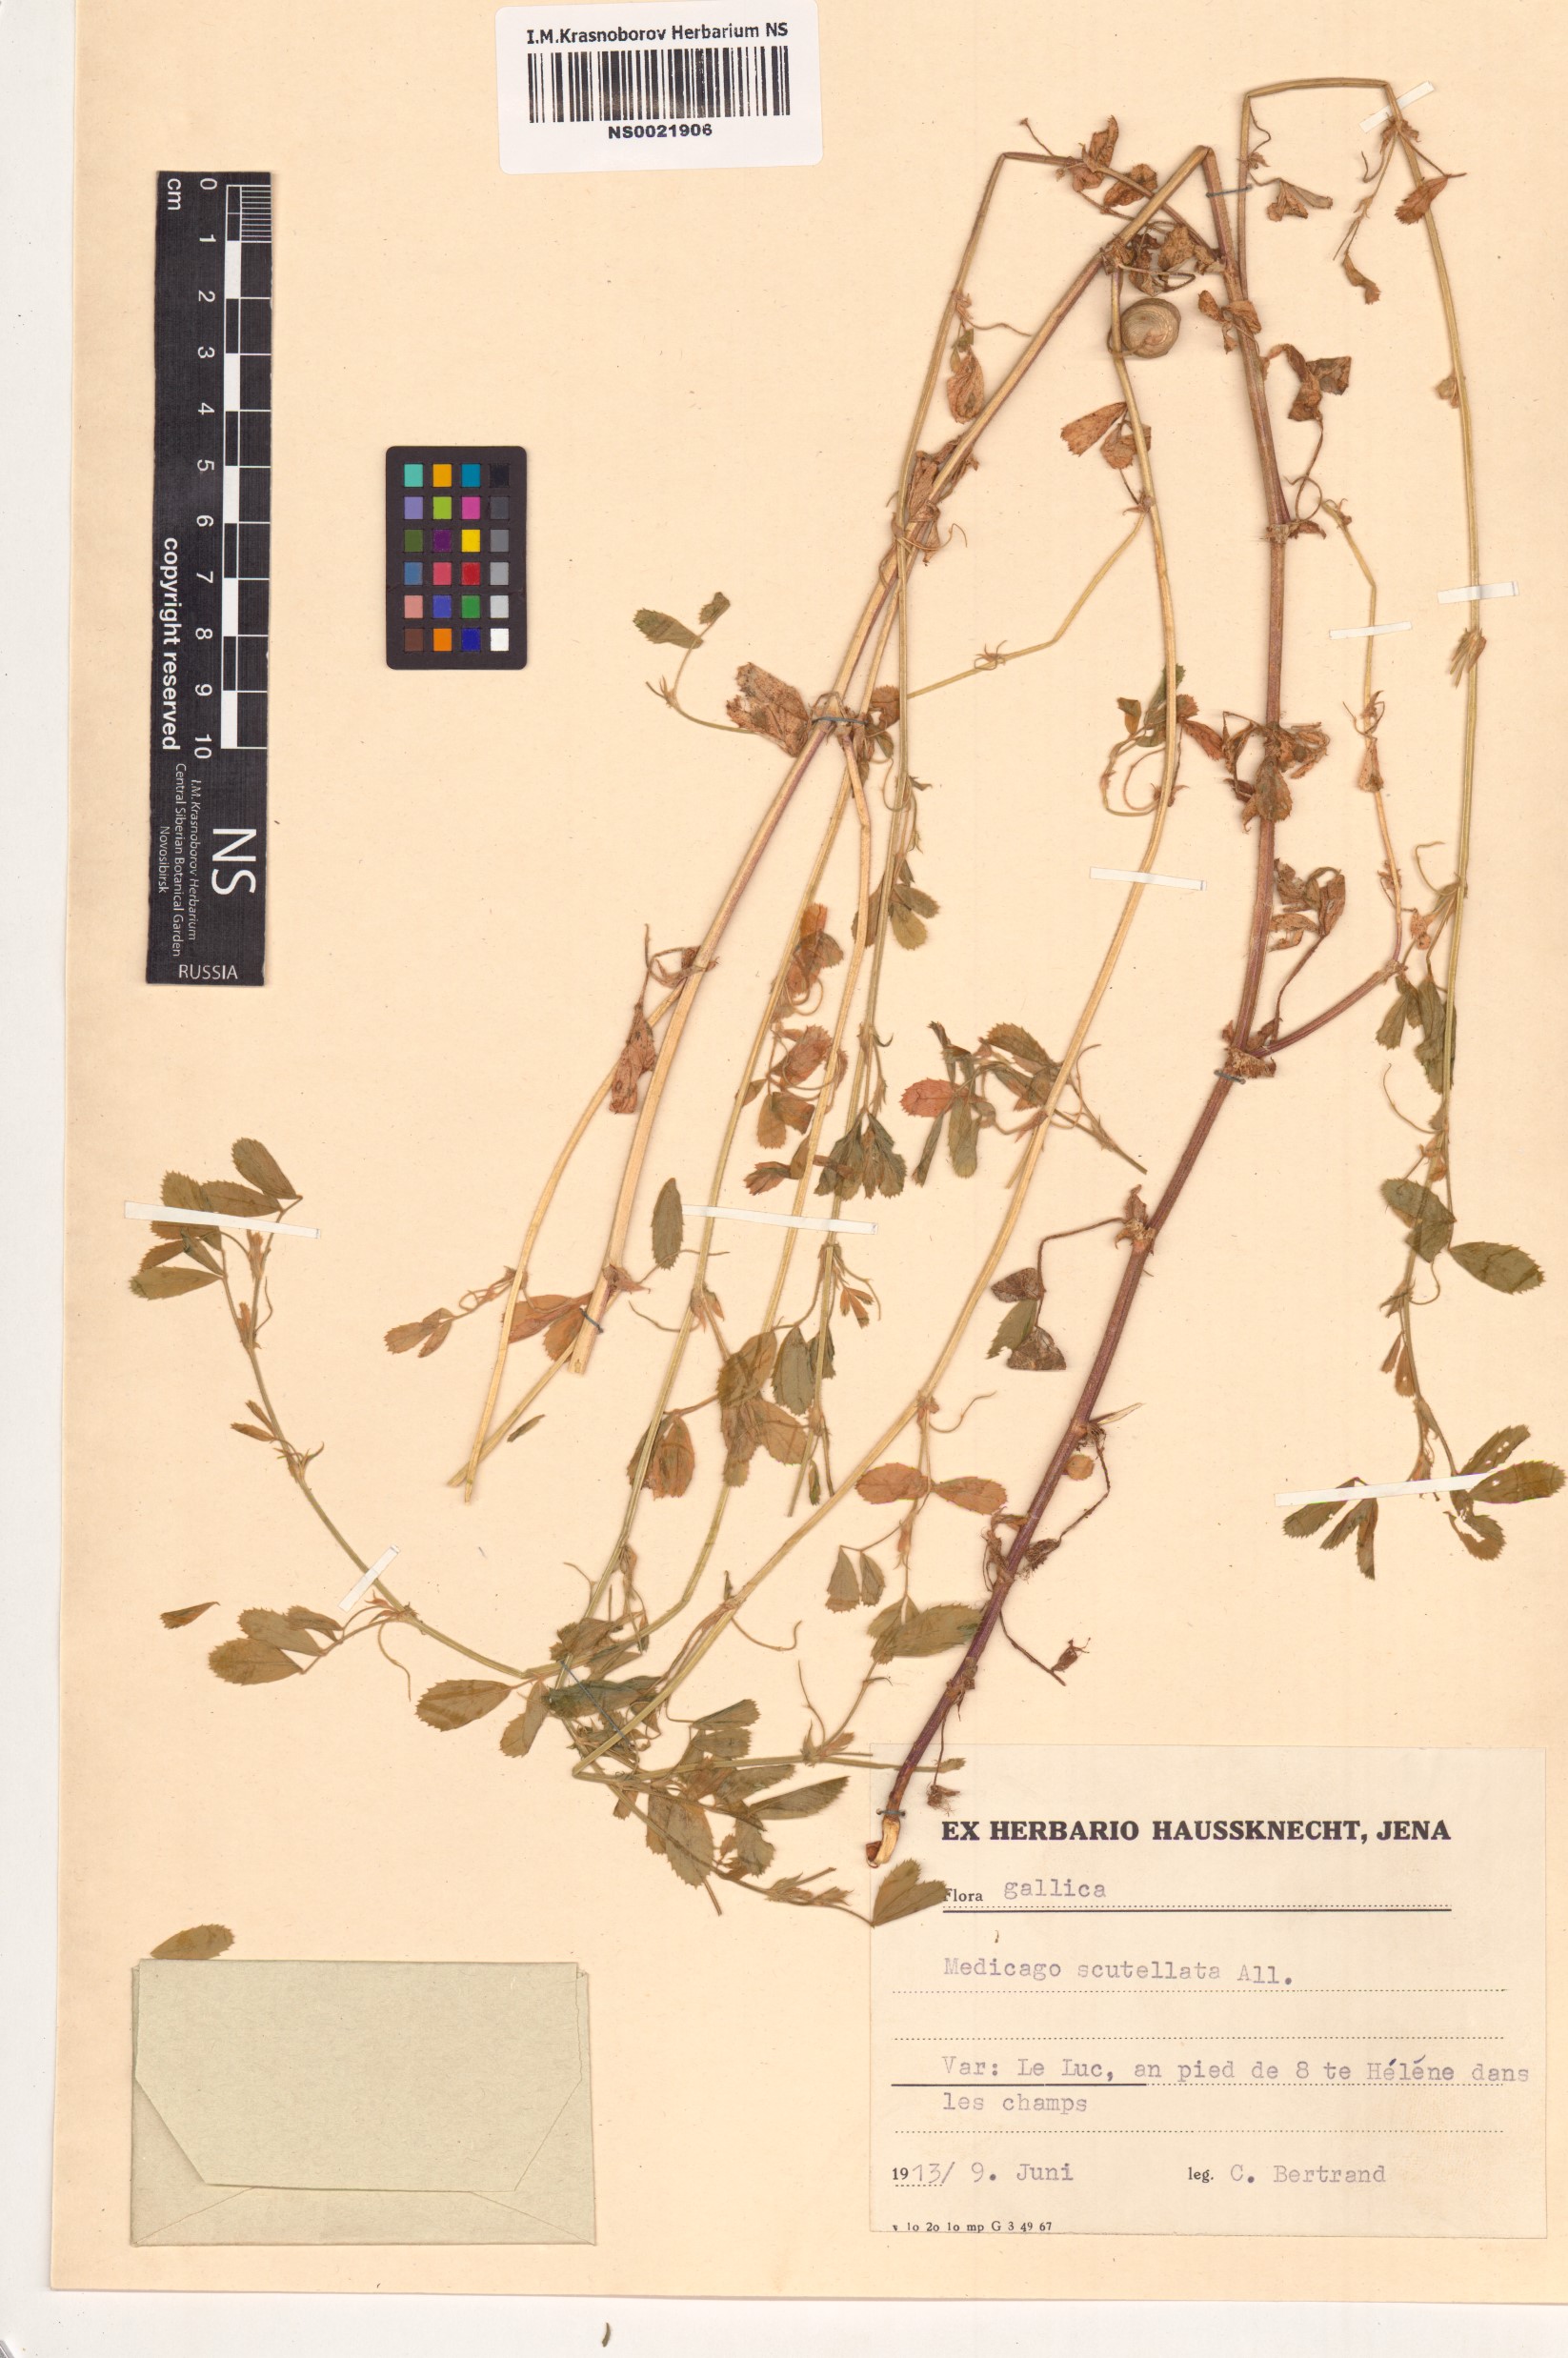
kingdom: Plantae
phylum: Tracheophyta
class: Magnoliopsida
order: Fabales
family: Fabaceae
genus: Medicago
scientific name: Medicago scutellata
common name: Snail medick
